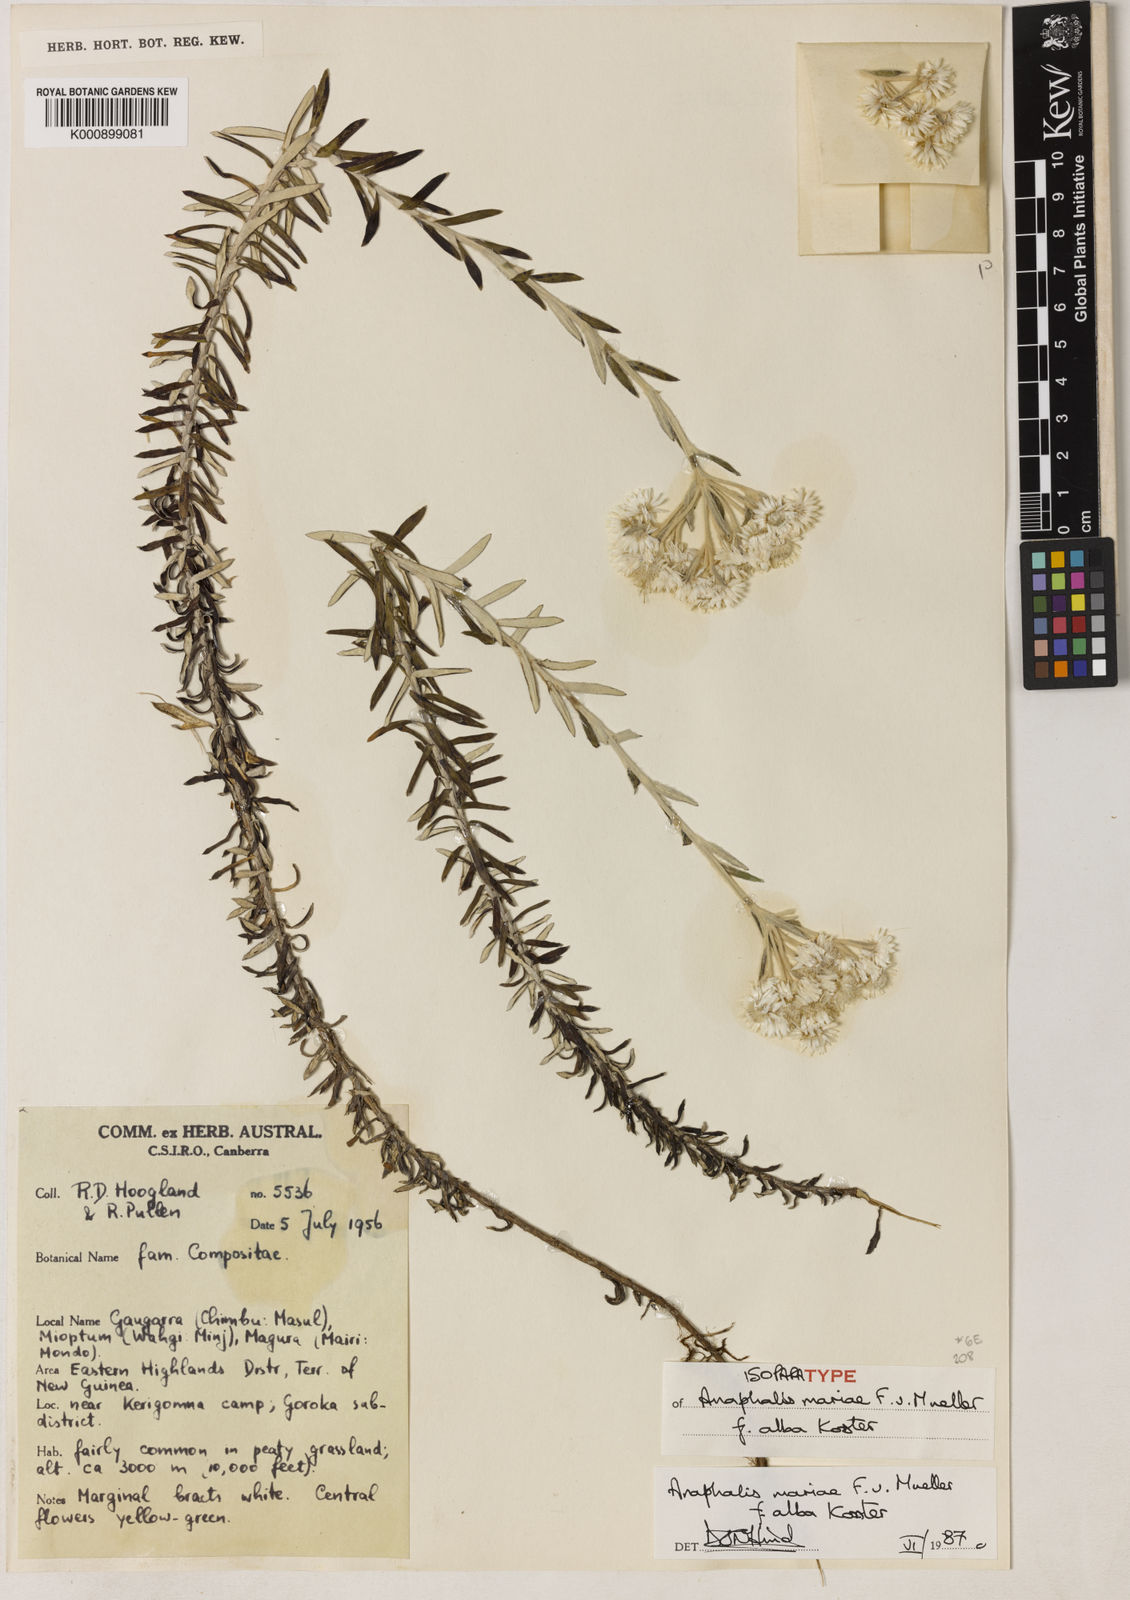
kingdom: Plantae
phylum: Tracheophyta
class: Magnoliopsida
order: Asterales
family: Asteraceae
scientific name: Asteraceae
